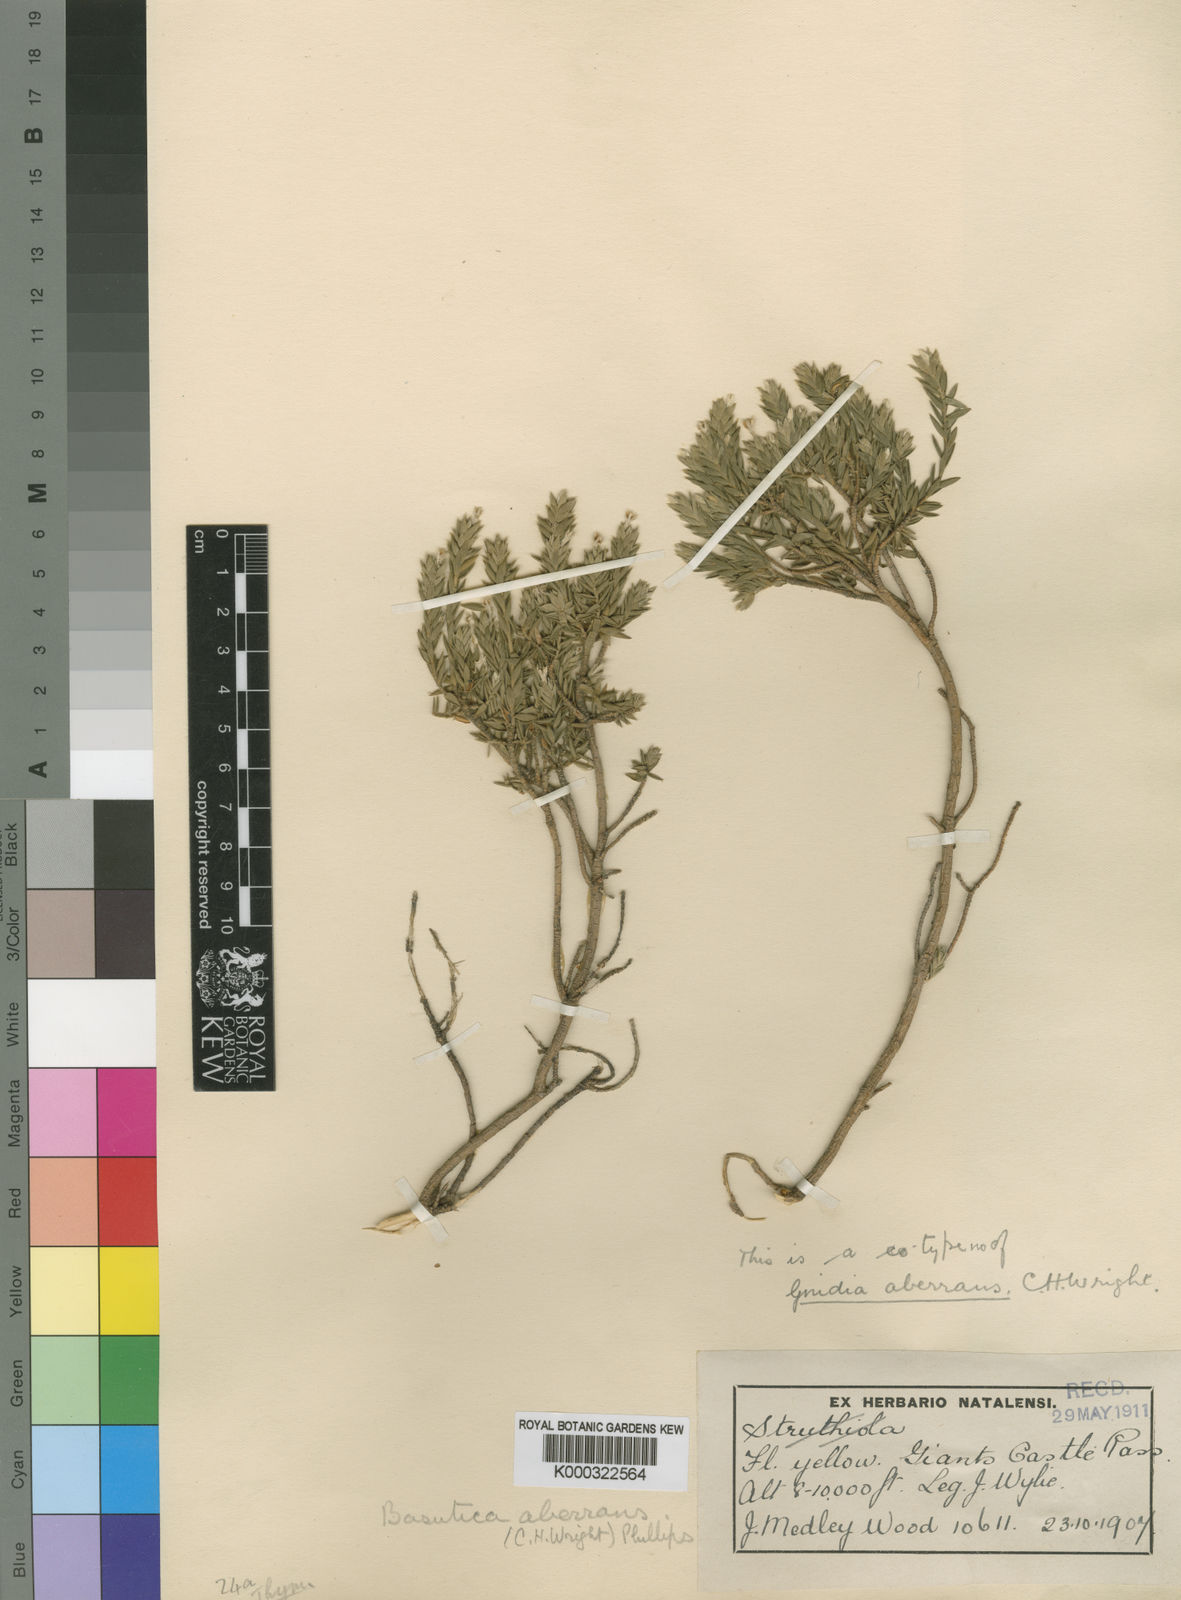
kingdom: Plantae
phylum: Tracheophyta
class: Magnoliopsida
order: Malvales
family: Thymelaeaceae
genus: Gnidia
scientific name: Gnidia albosericea
